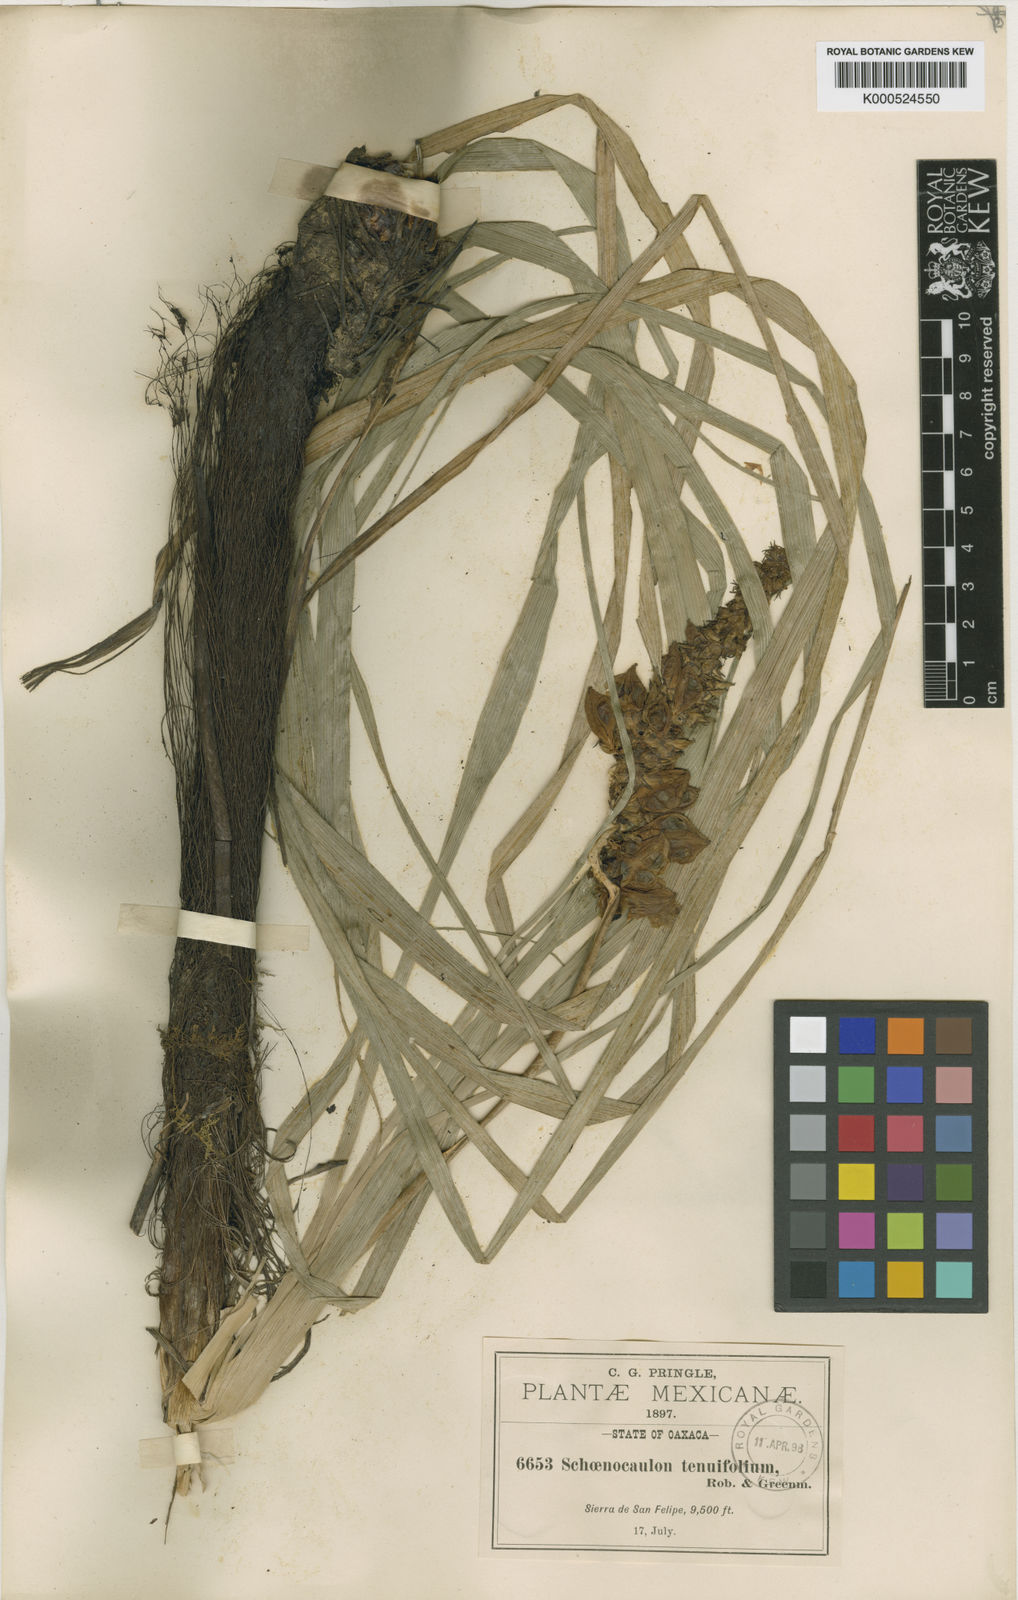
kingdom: Plantae
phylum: Tracheophyta
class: Liliopsida
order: Liliales
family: Melanthiaceae
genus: Schoenocaulon
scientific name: Schoenocaulon tenuifolium
